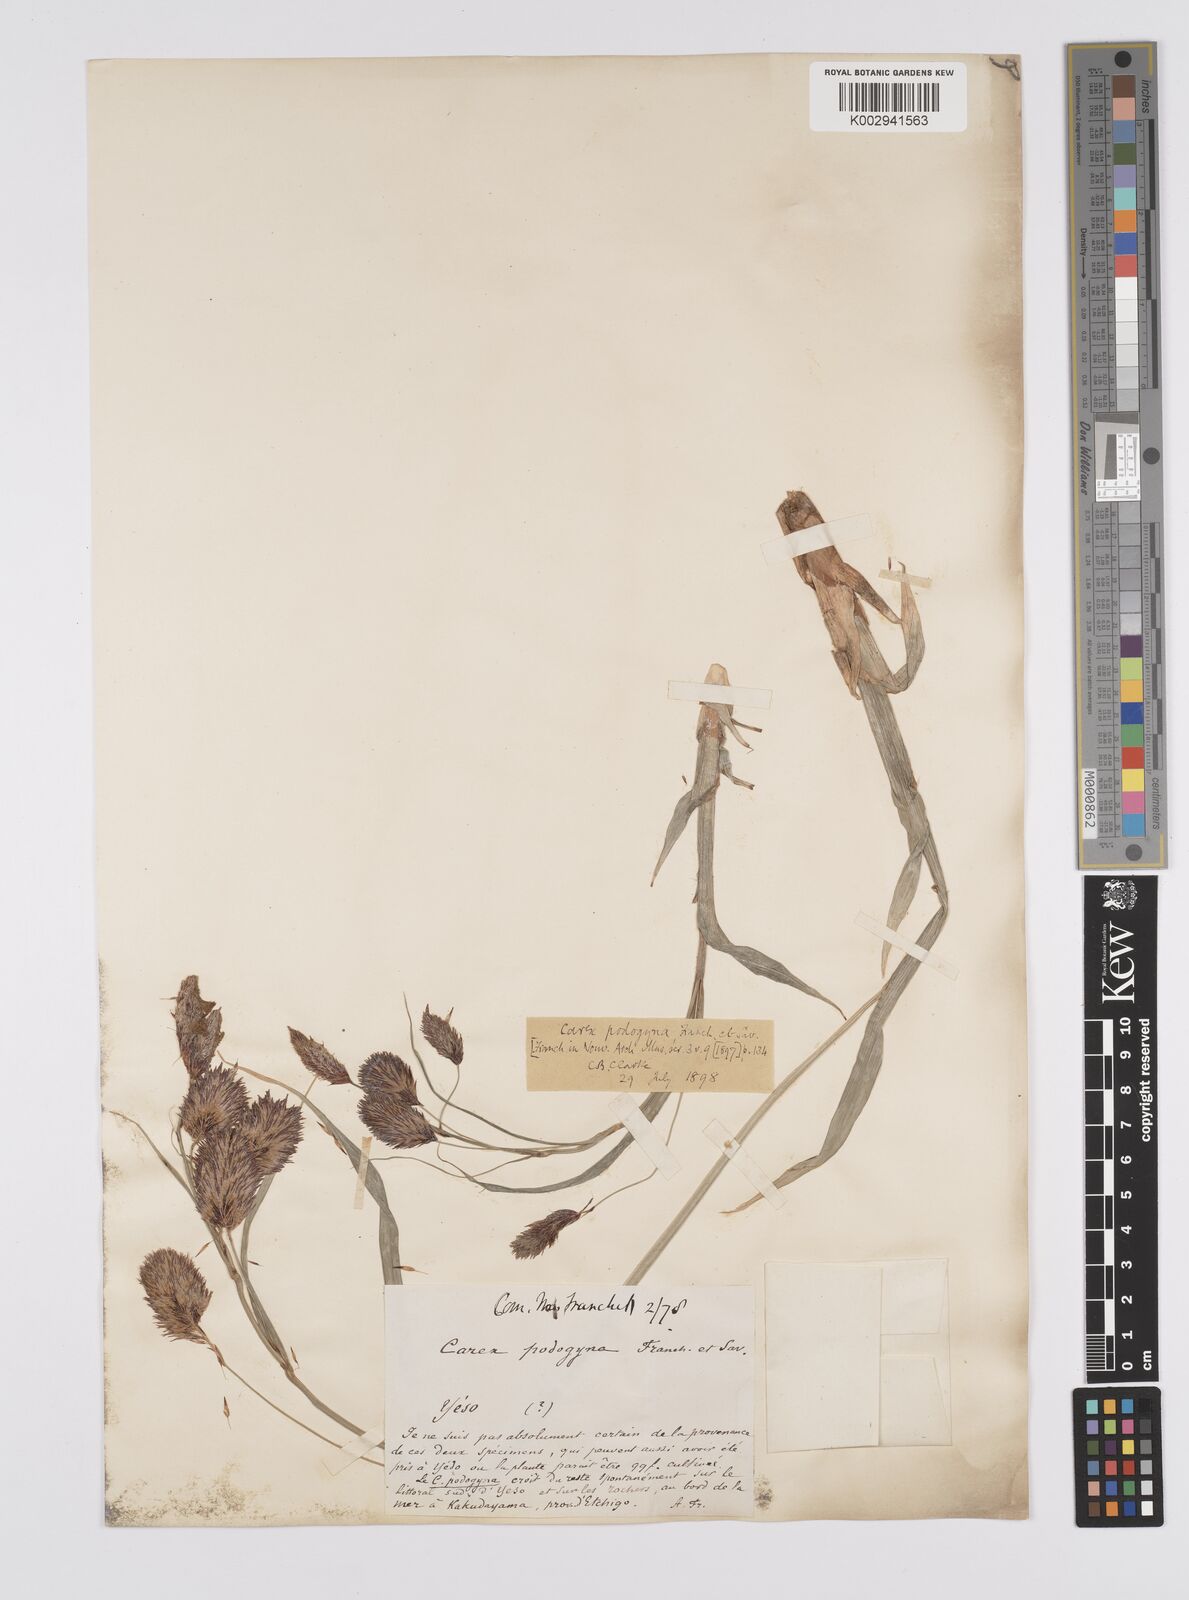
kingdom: Plantae
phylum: Tracheophyta
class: Liliopsida
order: Poales
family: Cyperaceae
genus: Carex
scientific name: Carex podogyna
